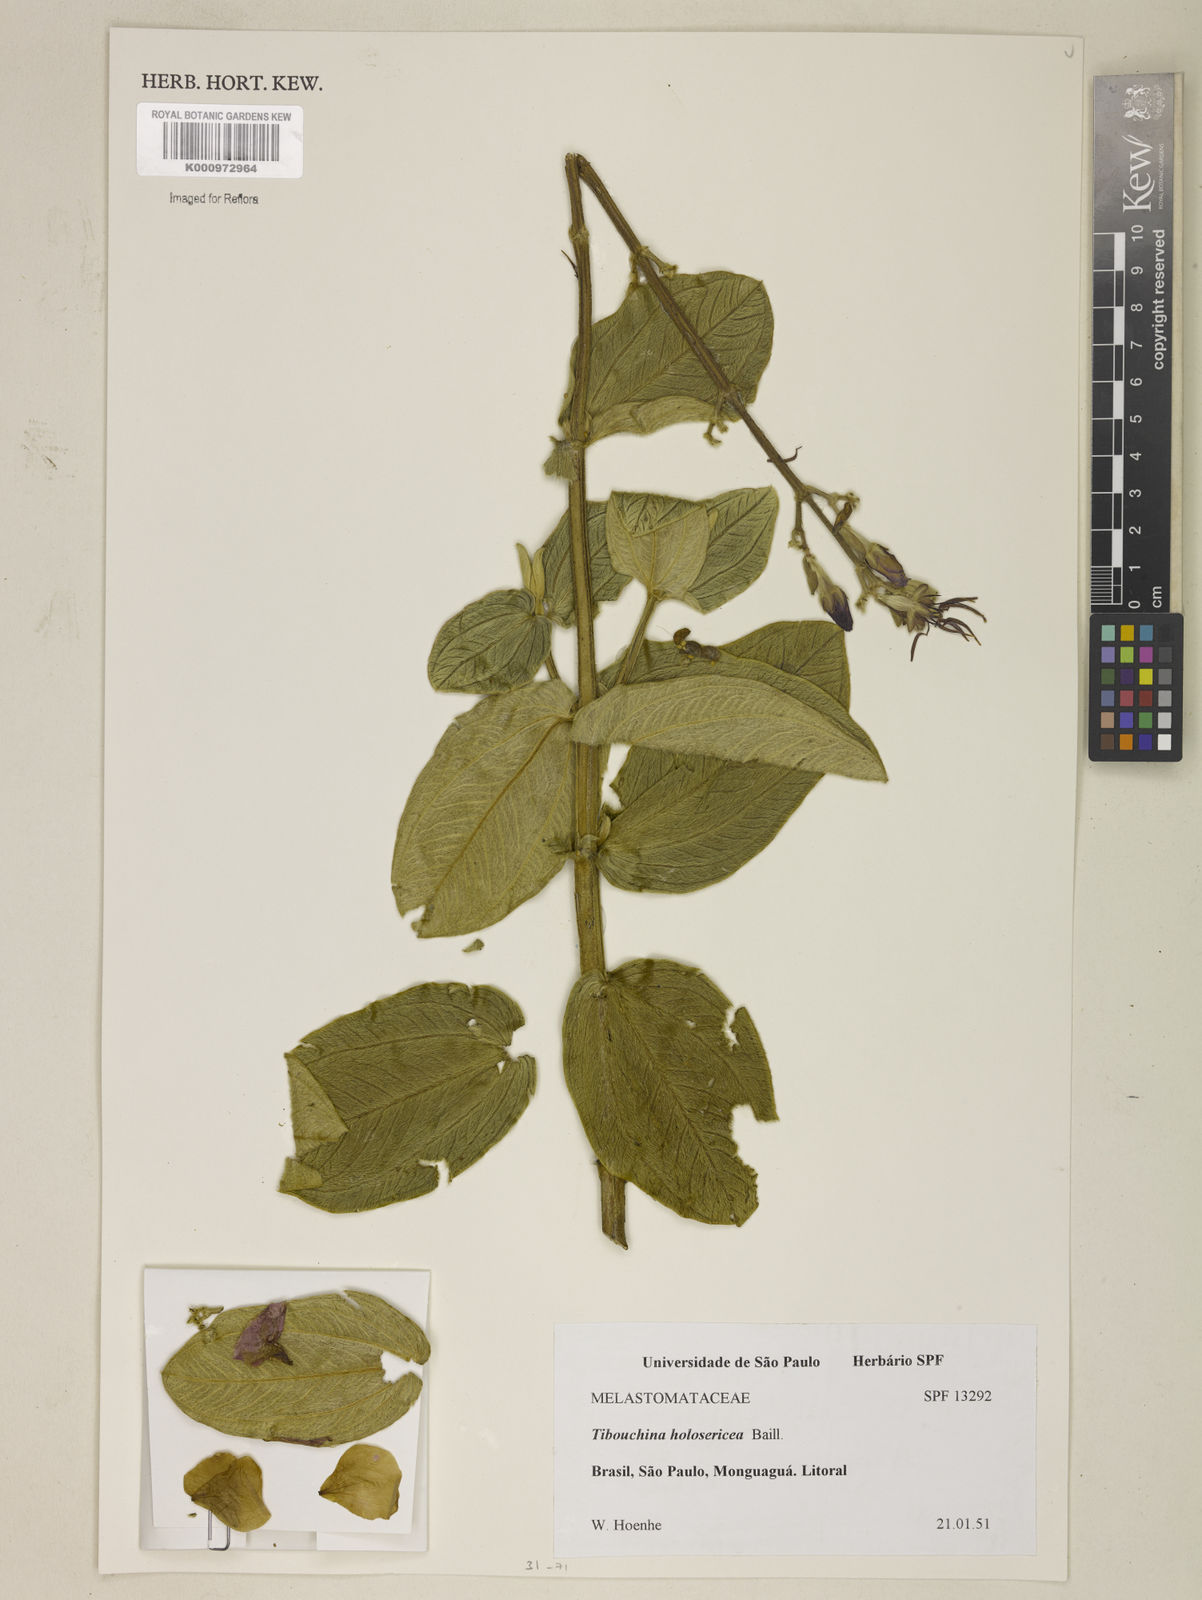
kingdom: Plantae
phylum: Tracheophyta
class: Magnoliopsida
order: Myrtales
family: Melastomataceae
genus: Pleroma
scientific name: Pleroma clavatum
